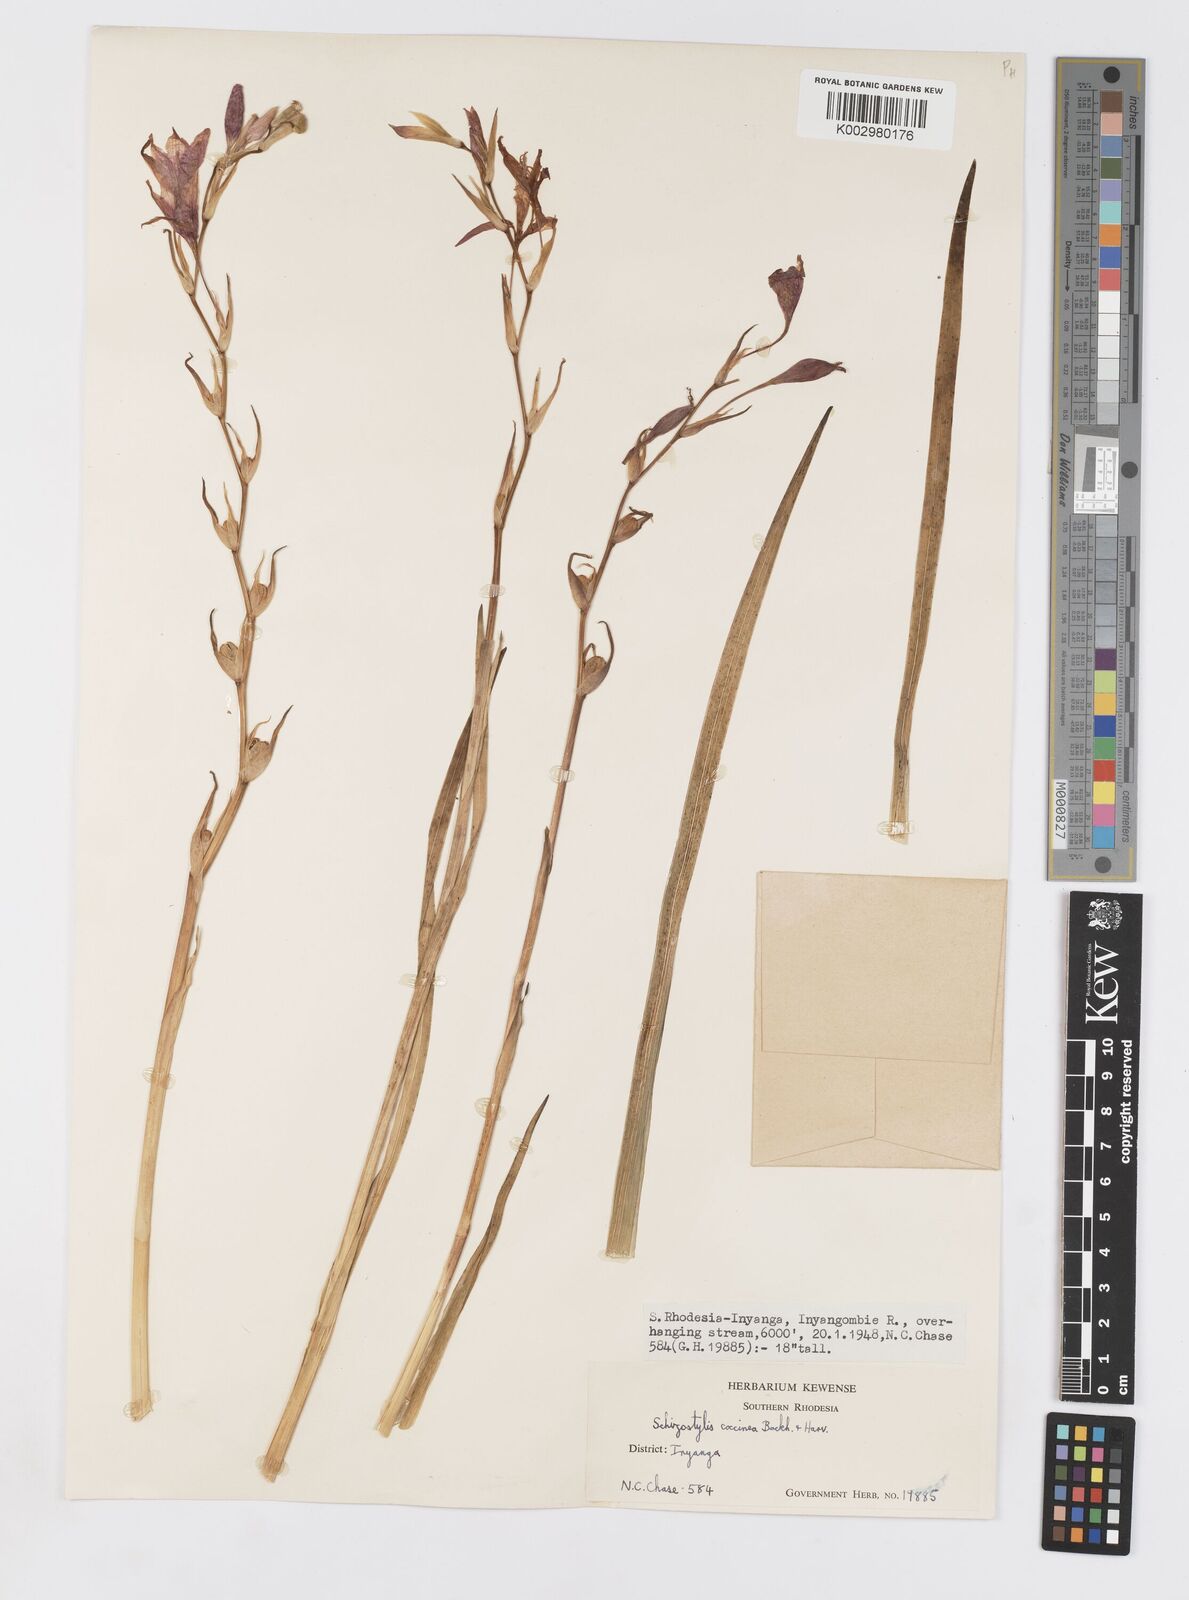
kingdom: Plantae
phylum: Tracheophyta
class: Liliopsida
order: Asparagales
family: Iridaceae
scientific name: Iridaceae
